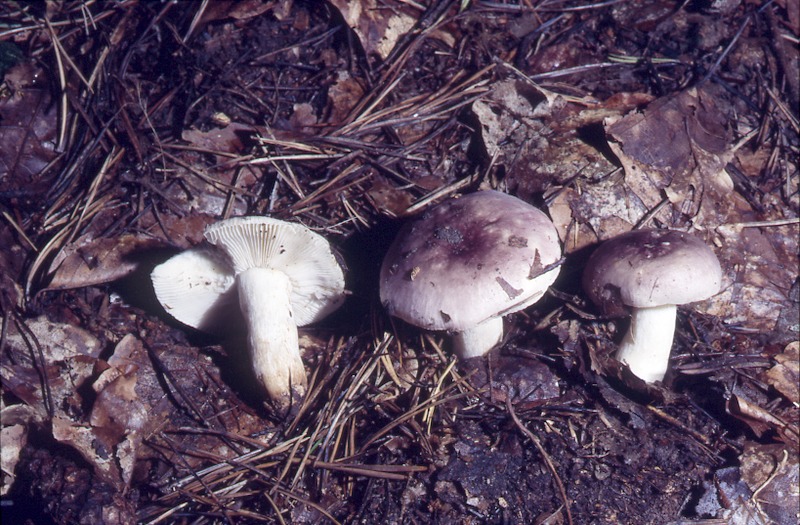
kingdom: Fungi
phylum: Basidiomycota
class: Agaricomycetes
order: Russulales
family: Russulaceae
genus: Russula
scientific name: Russula versicolor
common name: Variable brittlegill
